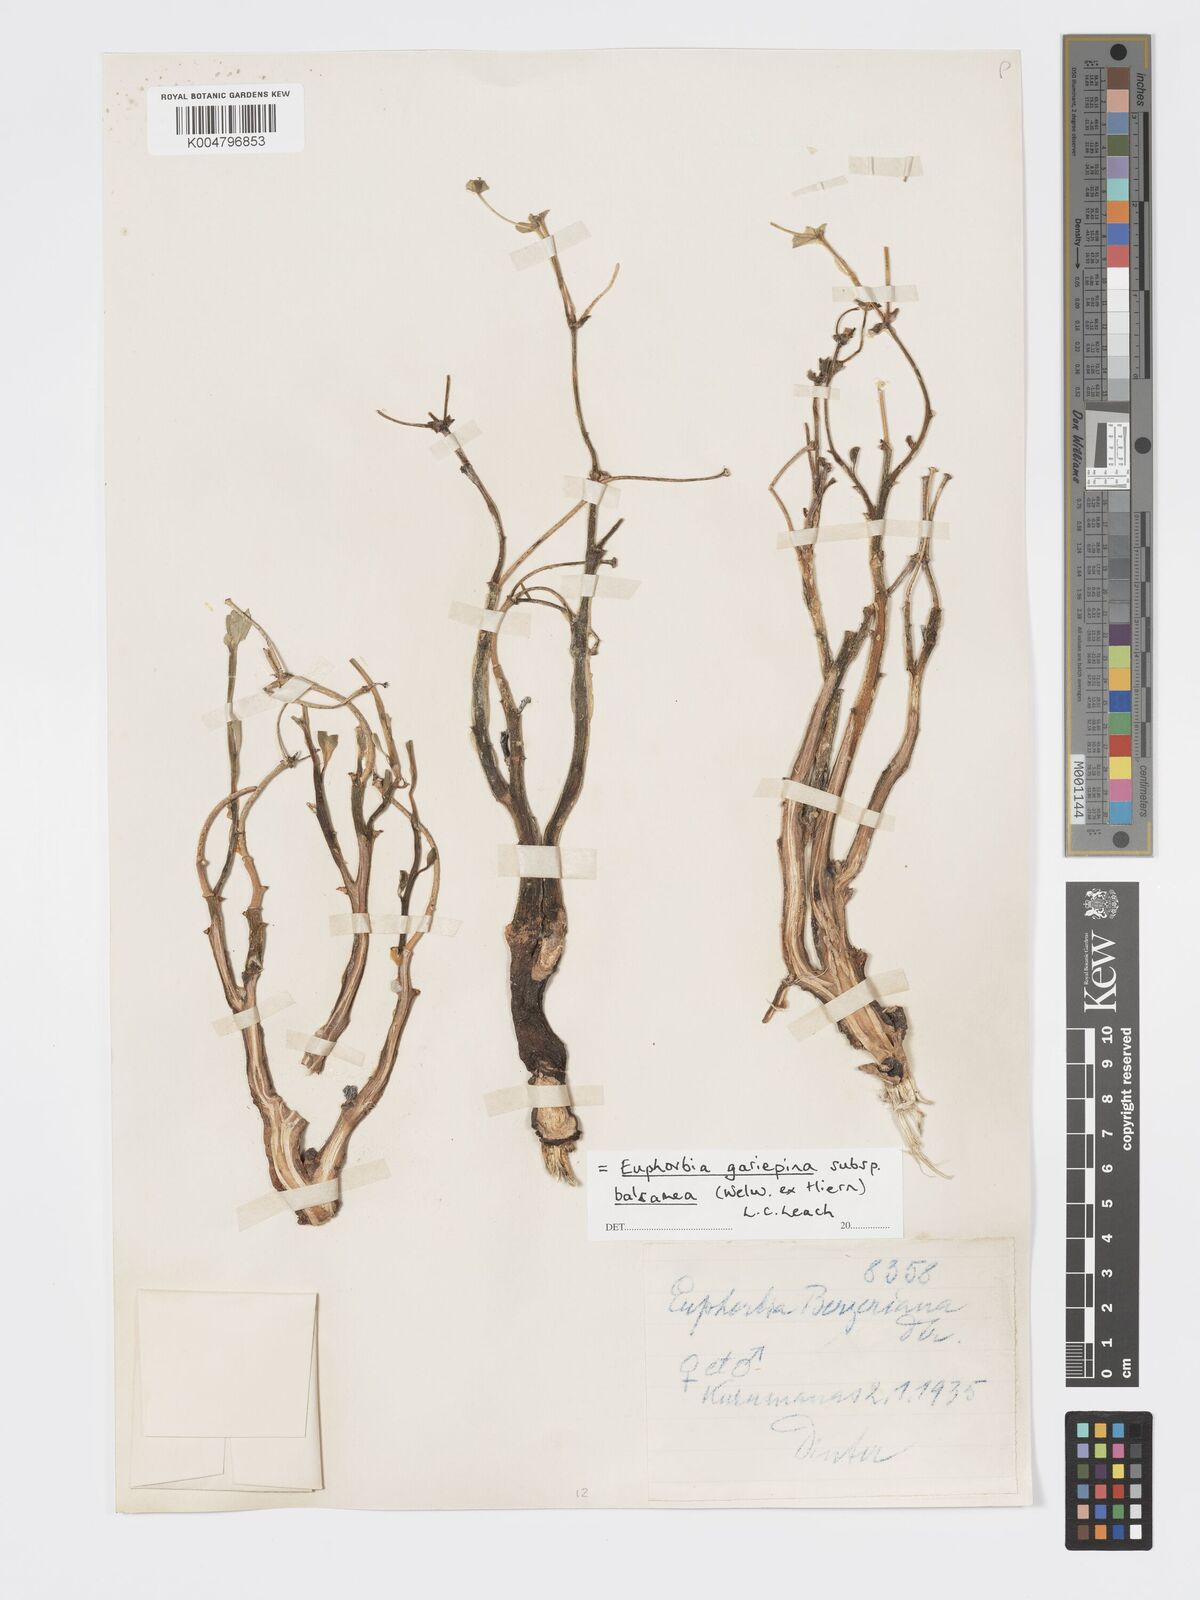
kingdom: Plantae
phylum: Tracheophyta
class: Magnoliopsida
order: Malpighiales
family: Euphorbiaceae
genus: Euphorbia
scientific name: Euphorbia gariepina
